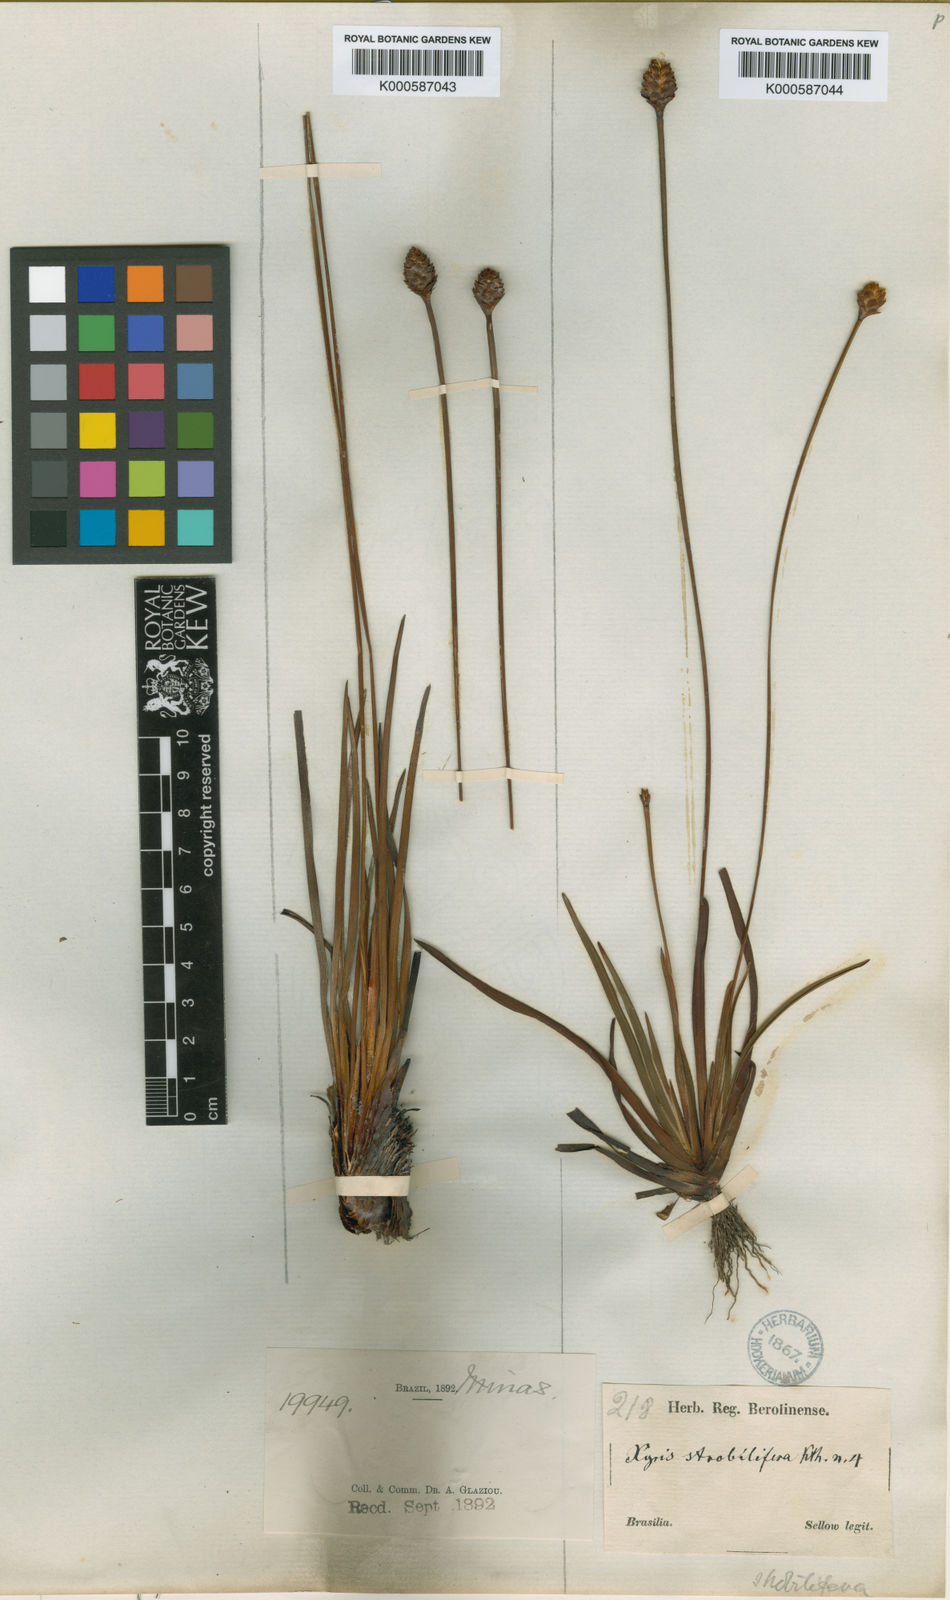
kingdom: Plantae
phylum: Tracheophyta
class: Liliopsida
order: Poales
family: Xyridaceae
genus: Xyris
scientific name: Xyris bialata
